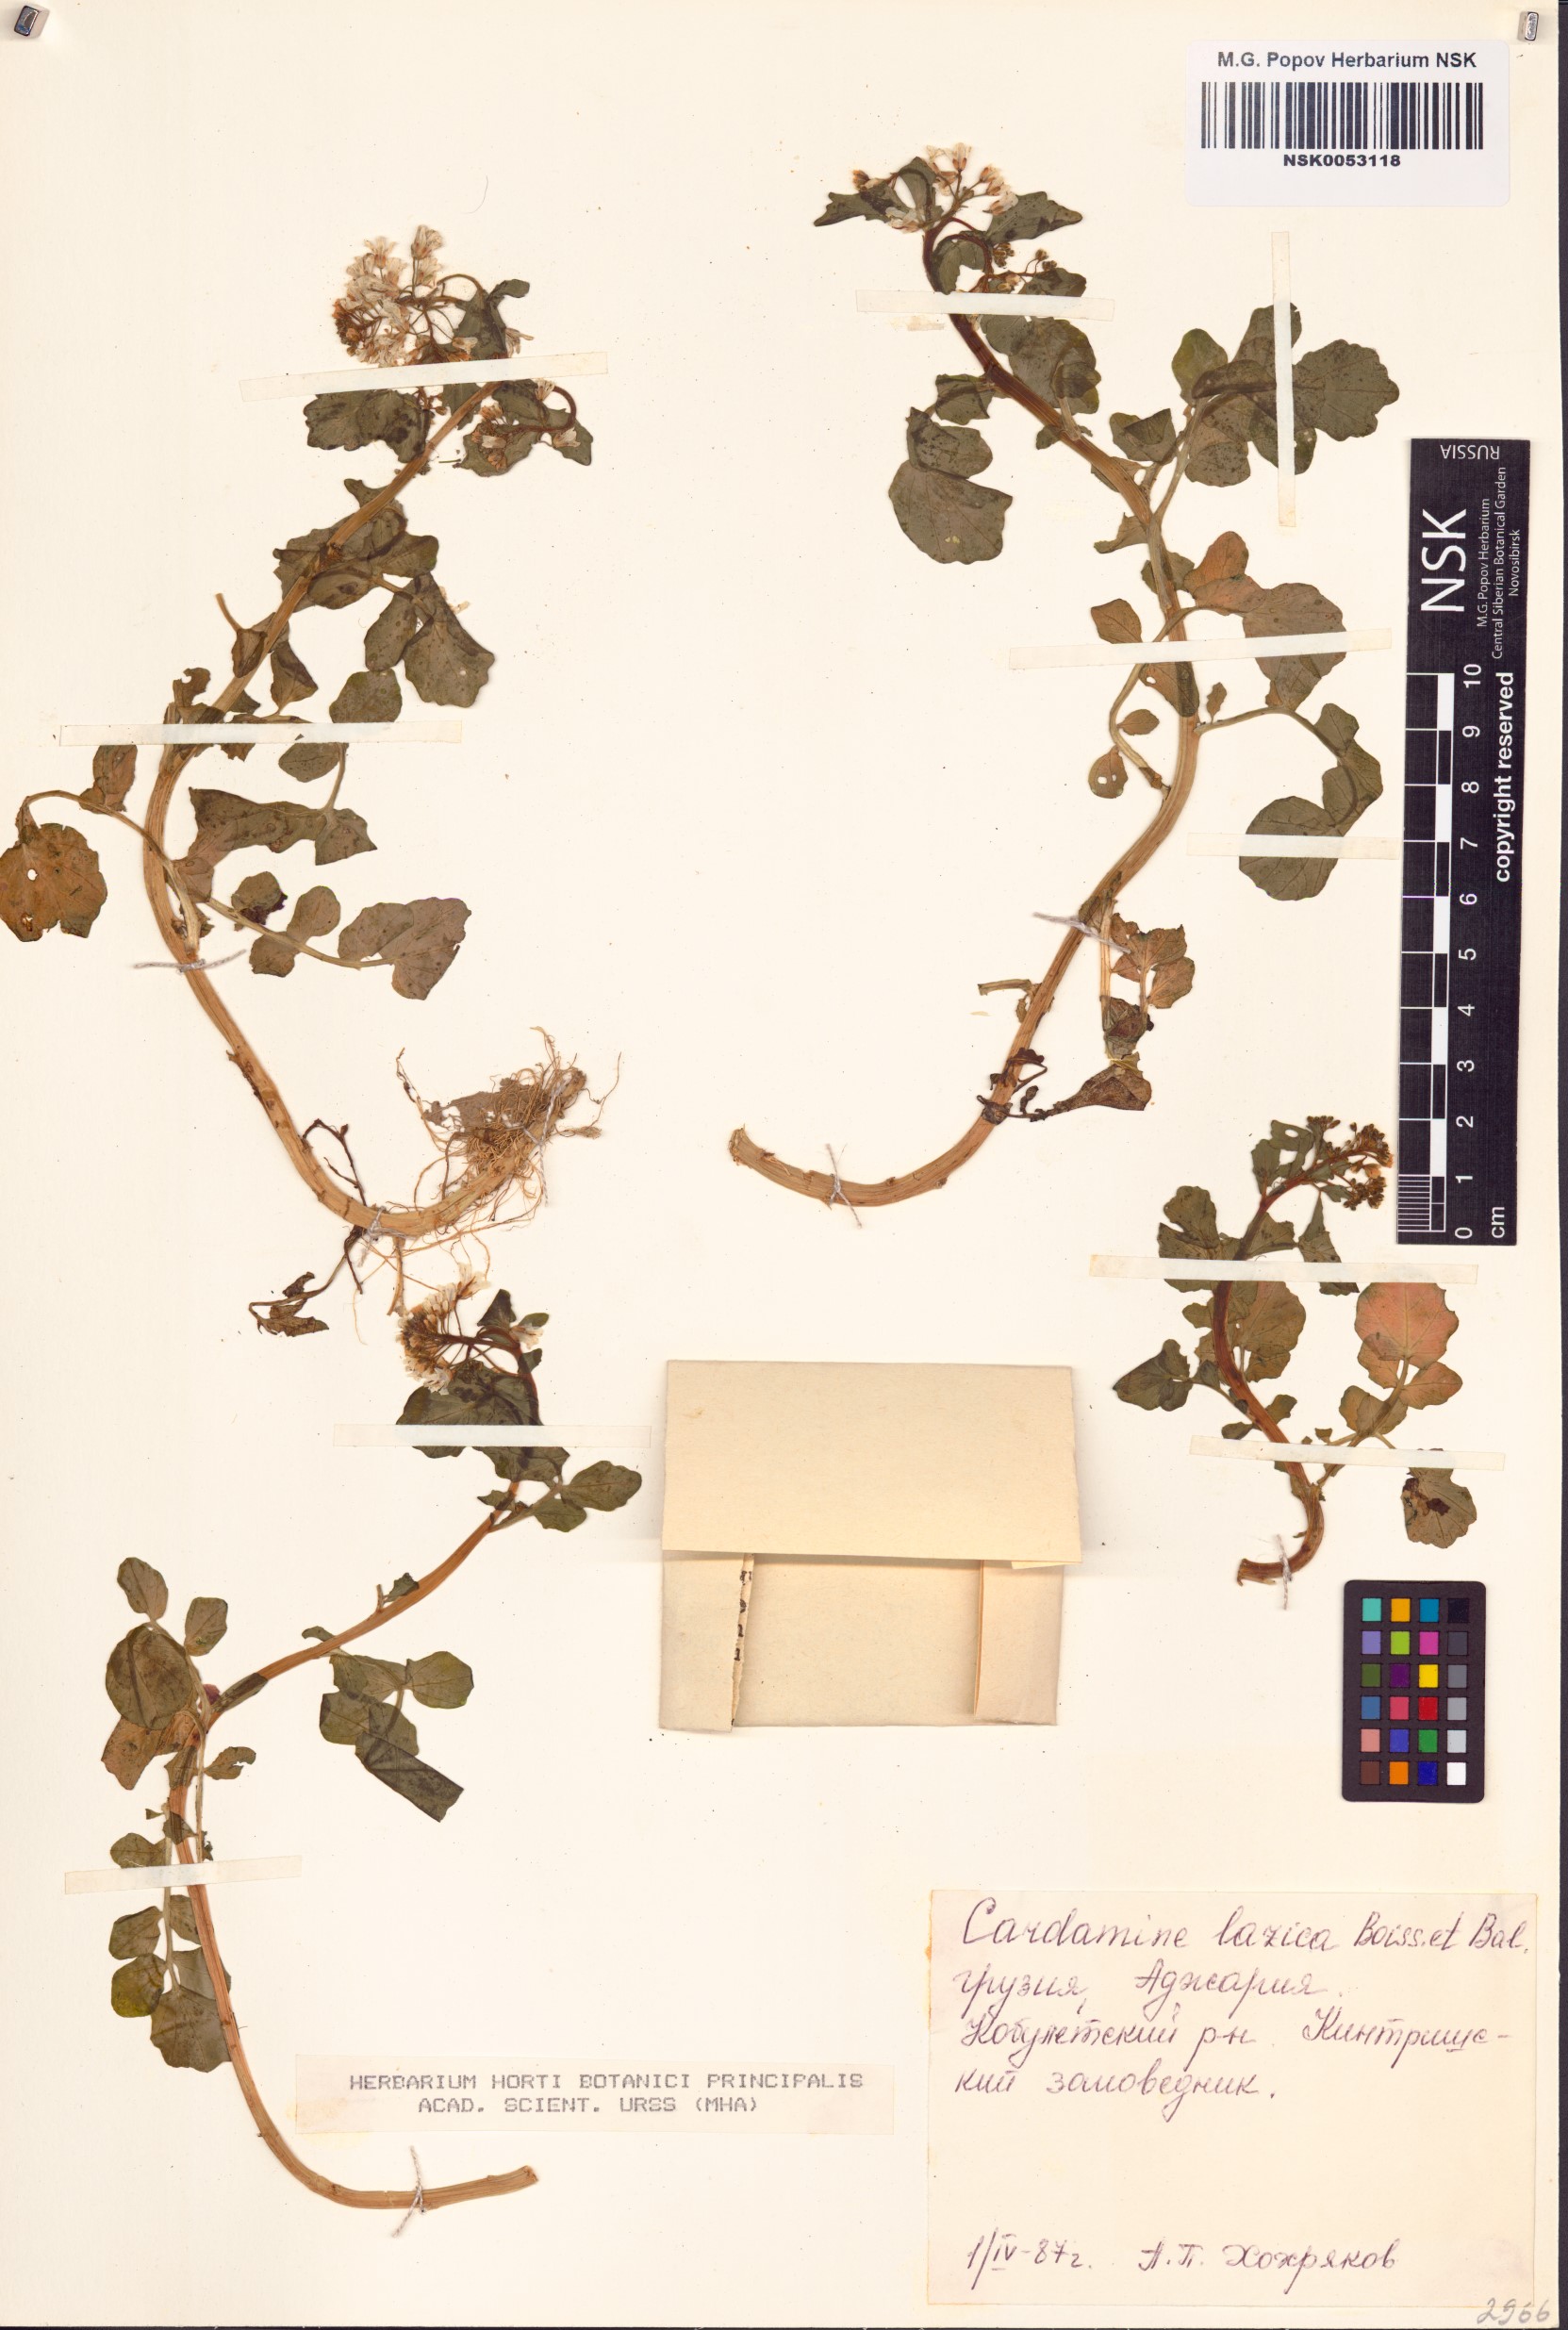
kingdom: Plantae
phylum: Tracheophyta
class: Magnoliopsida
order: Brassicales
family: Brassicaceae
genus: Cardamine
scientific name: Cardamine lazica
